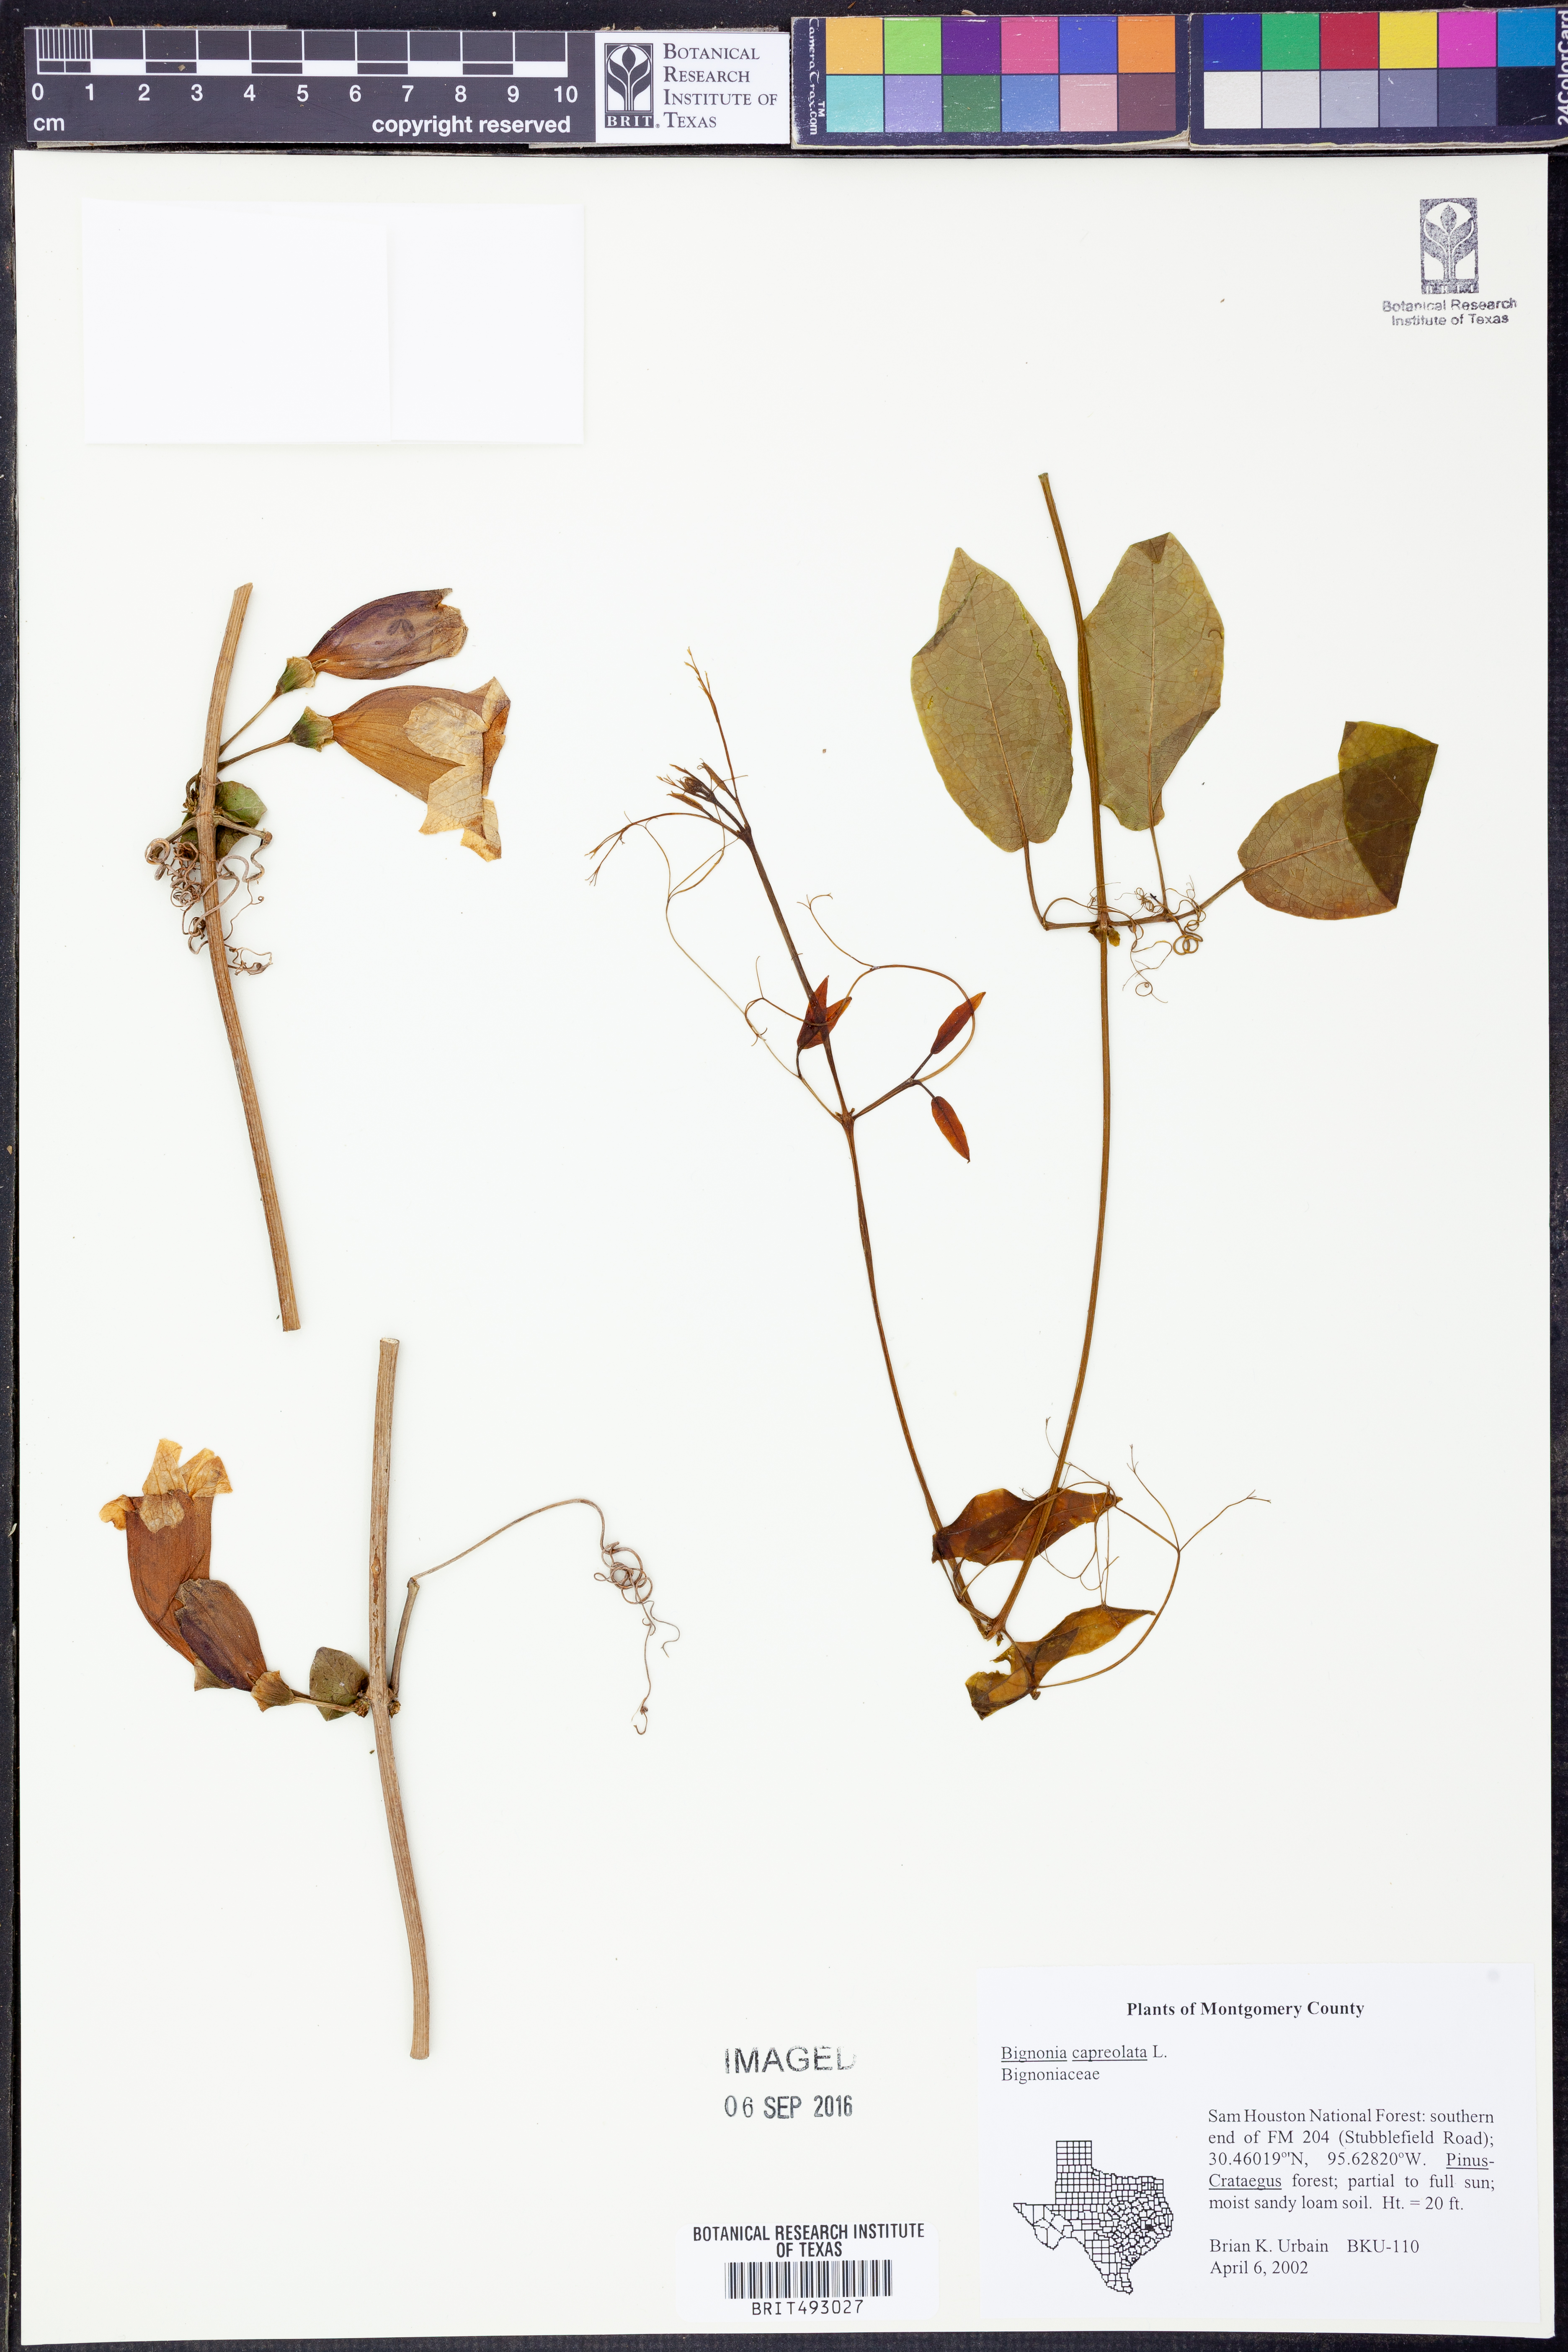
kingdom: Plantae
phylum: Tracheophyta
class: Magnoliopsida
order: Lamiales
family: Bignoniaceae
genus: Bignonia
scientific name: Bignonia capreolata
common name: Crossvine
